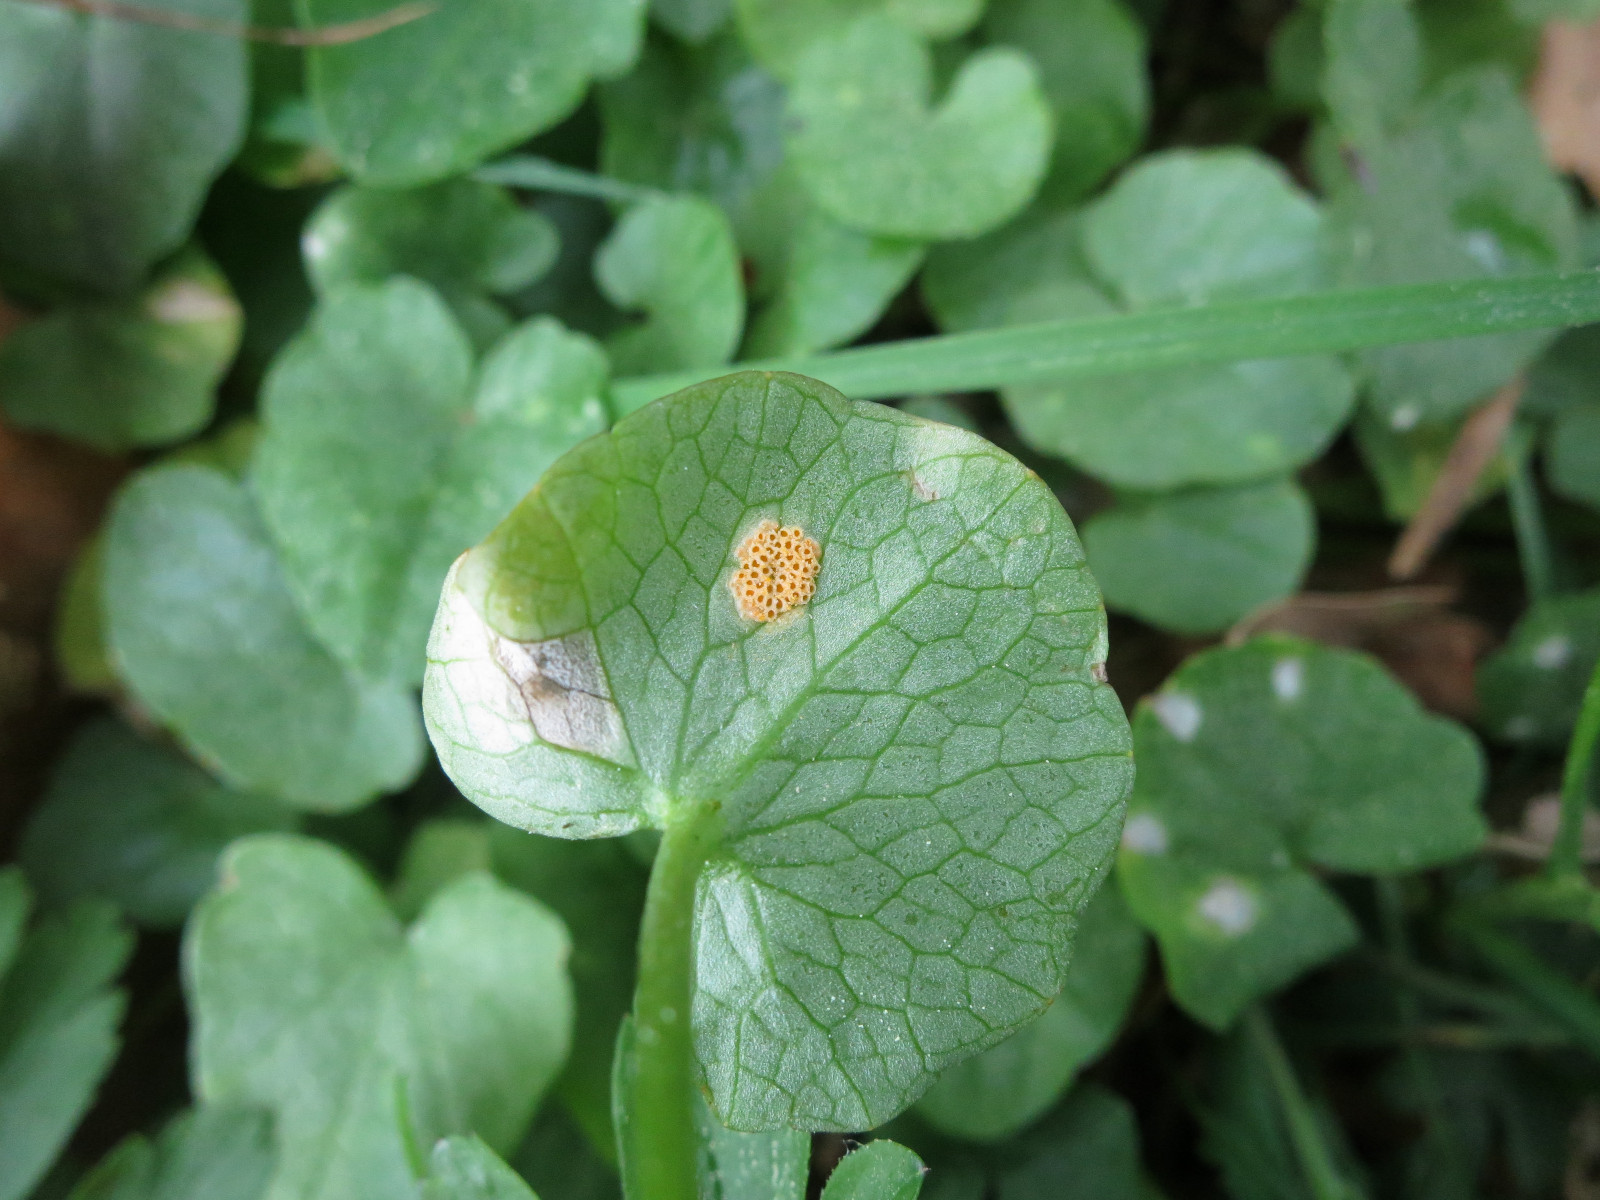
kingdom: Fungi
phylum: Basidiomycota
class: Pucciniomycetes
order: Pucciniales
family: Pucciniaceae
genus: Uromyces
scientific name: Uromyces dactylidis
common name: ranunkel-encellerust
